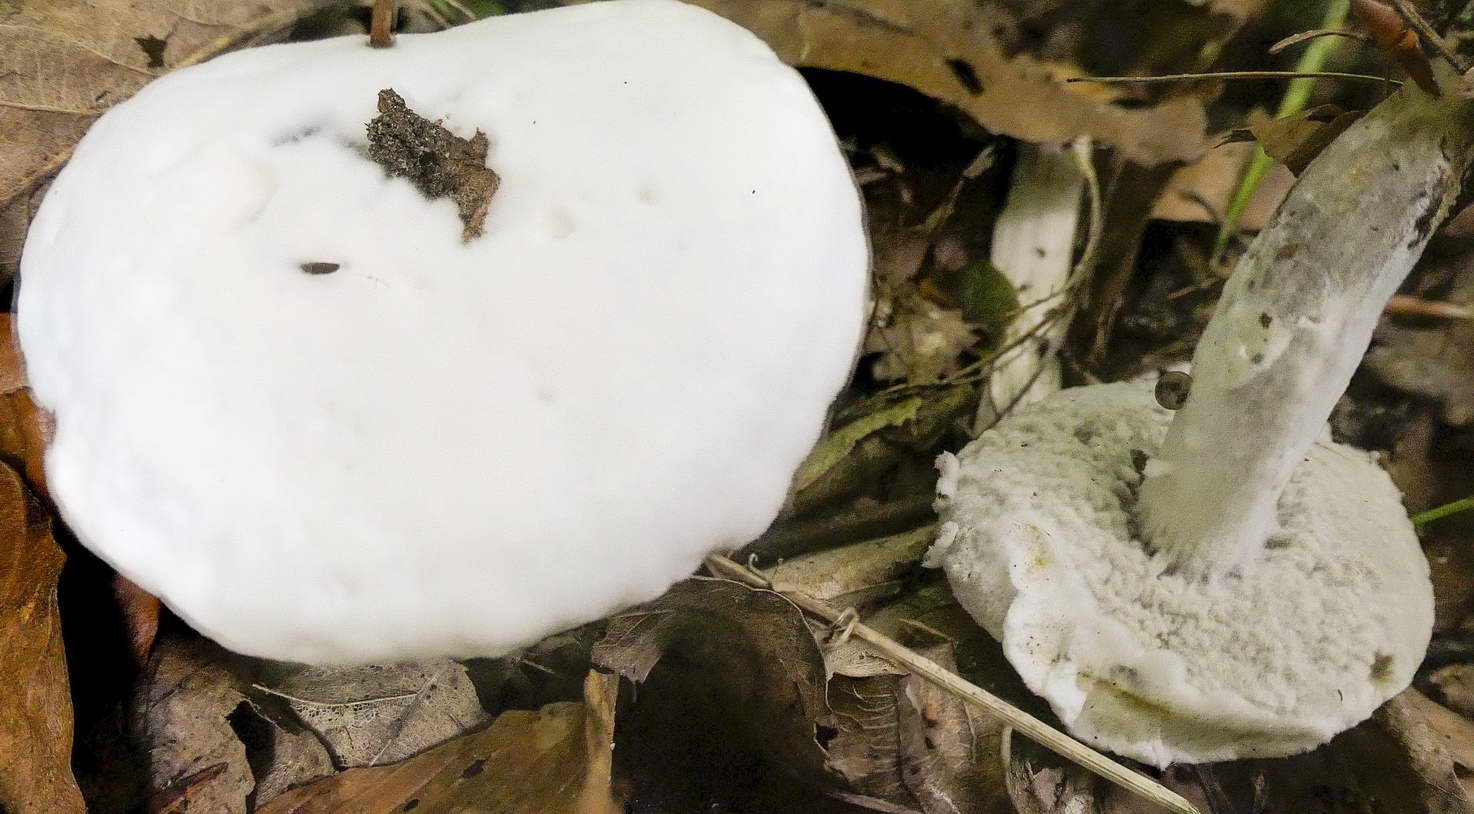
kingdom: Fungi
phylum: Ascomycota
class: Sordariomycetes
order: Hypocreales
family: Hypocreaceae
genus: Hypomyces
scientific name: Hypomyces microspermus
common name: dværgrørhat-snylteskorpe
